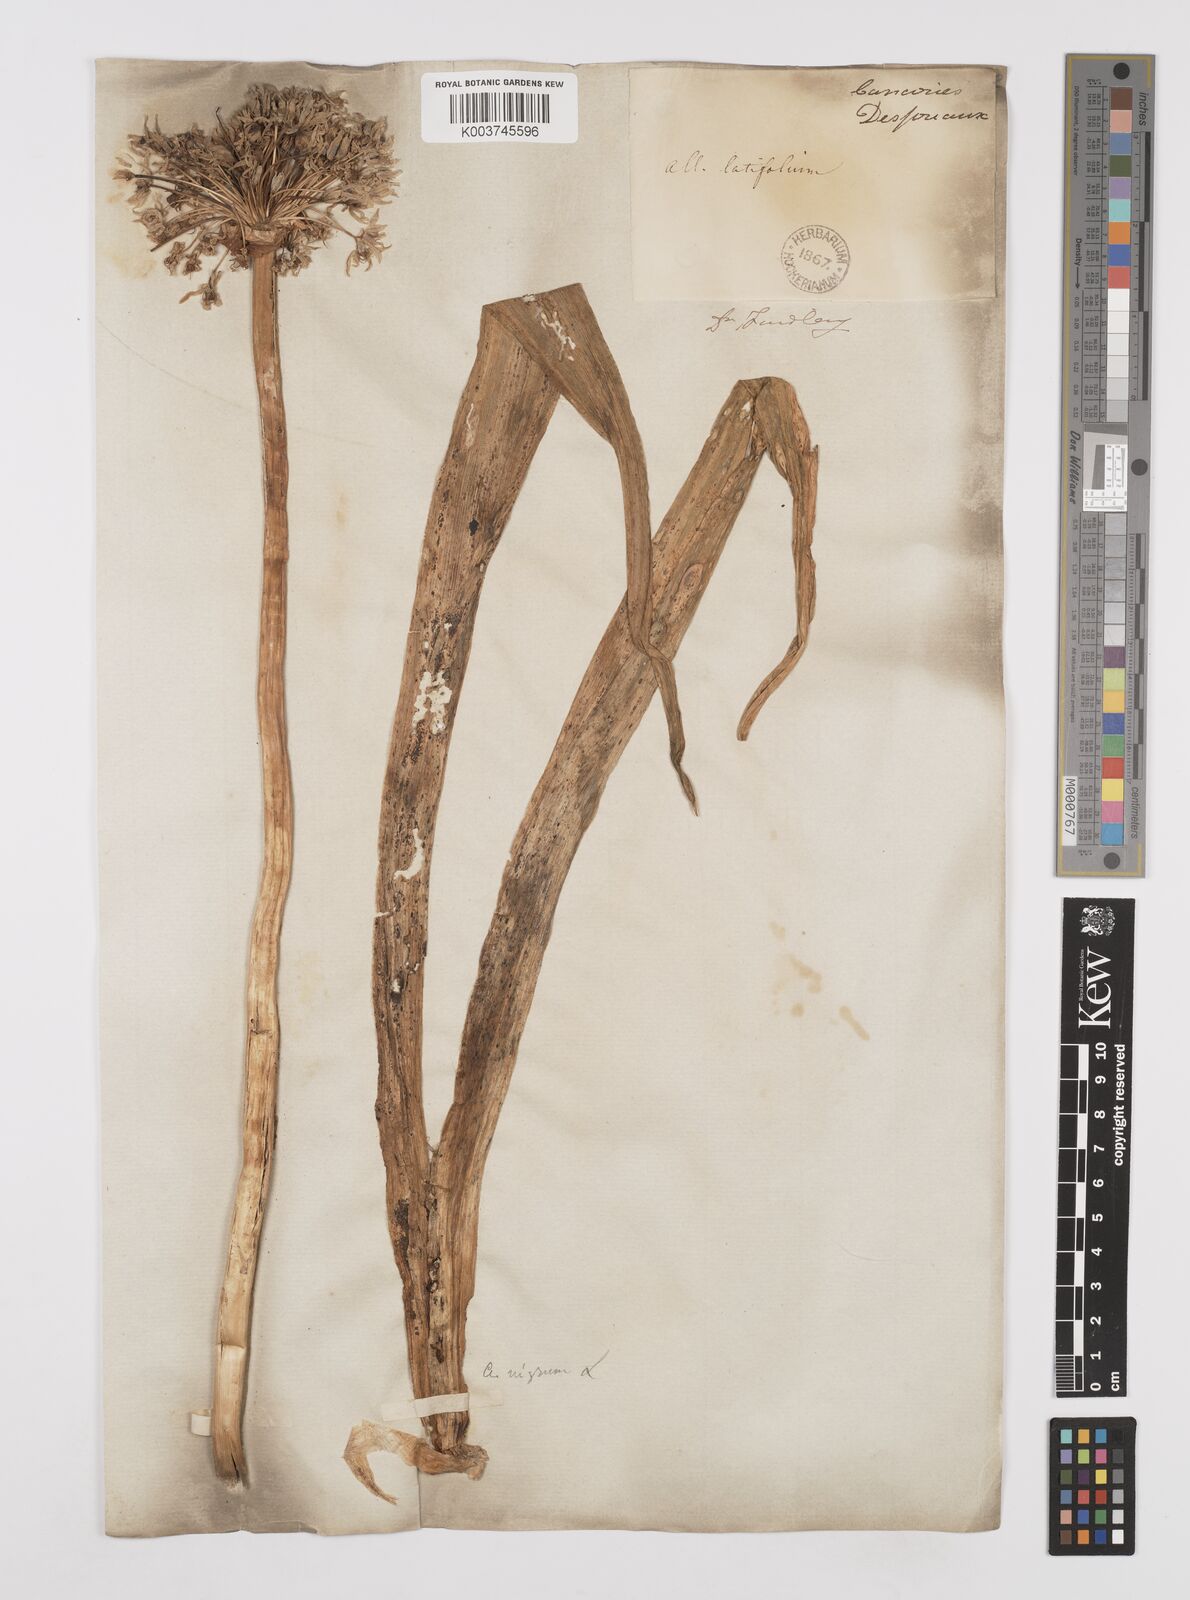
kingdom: Plantae
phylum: Tracheophyta
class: Liliopsida
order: Asparagales
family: Amaryllidaceae
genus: Allium
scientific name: Allium nigrum
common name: Black garlic
